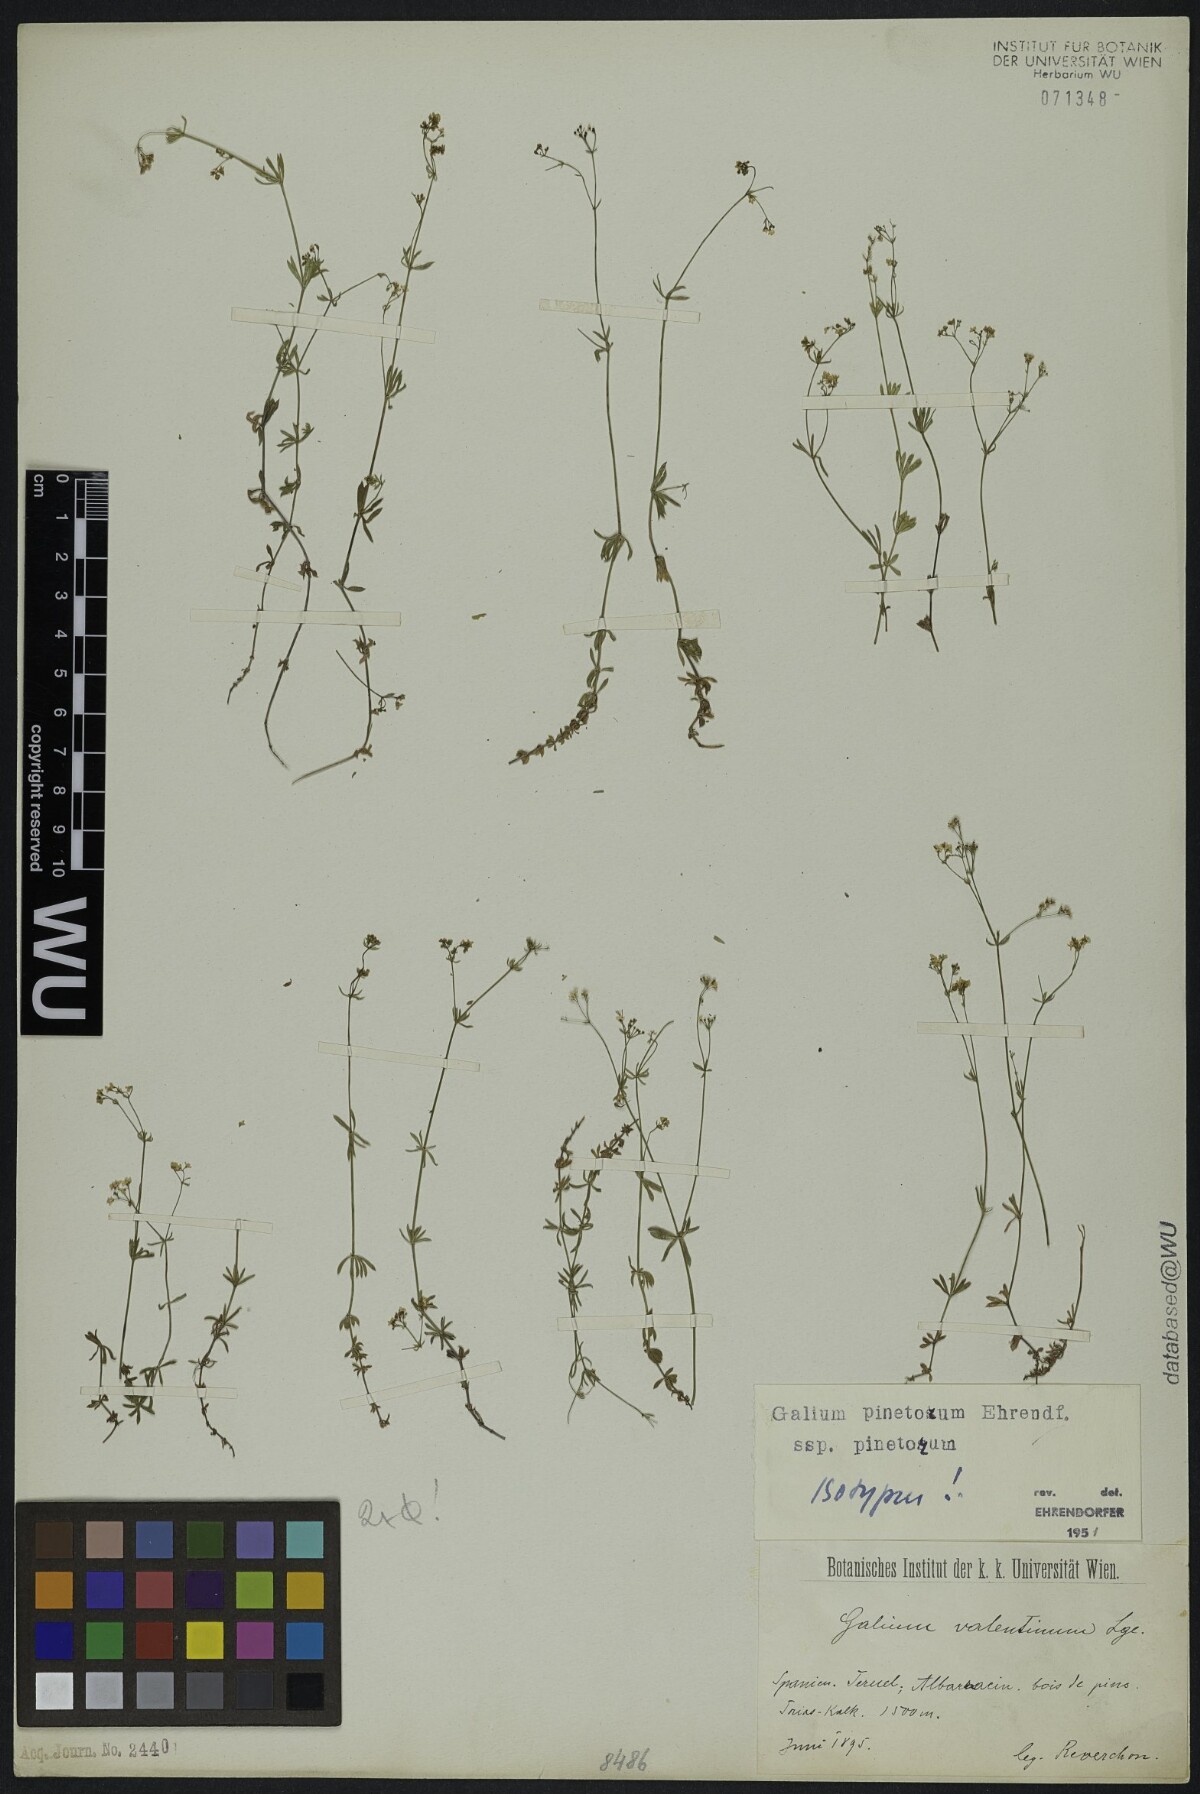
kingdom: Plantae
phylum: Tracheophyta
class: Magnoliopsida
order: Gentianales
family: Rubiaceae
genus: Galium
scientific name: Galium estebanii
